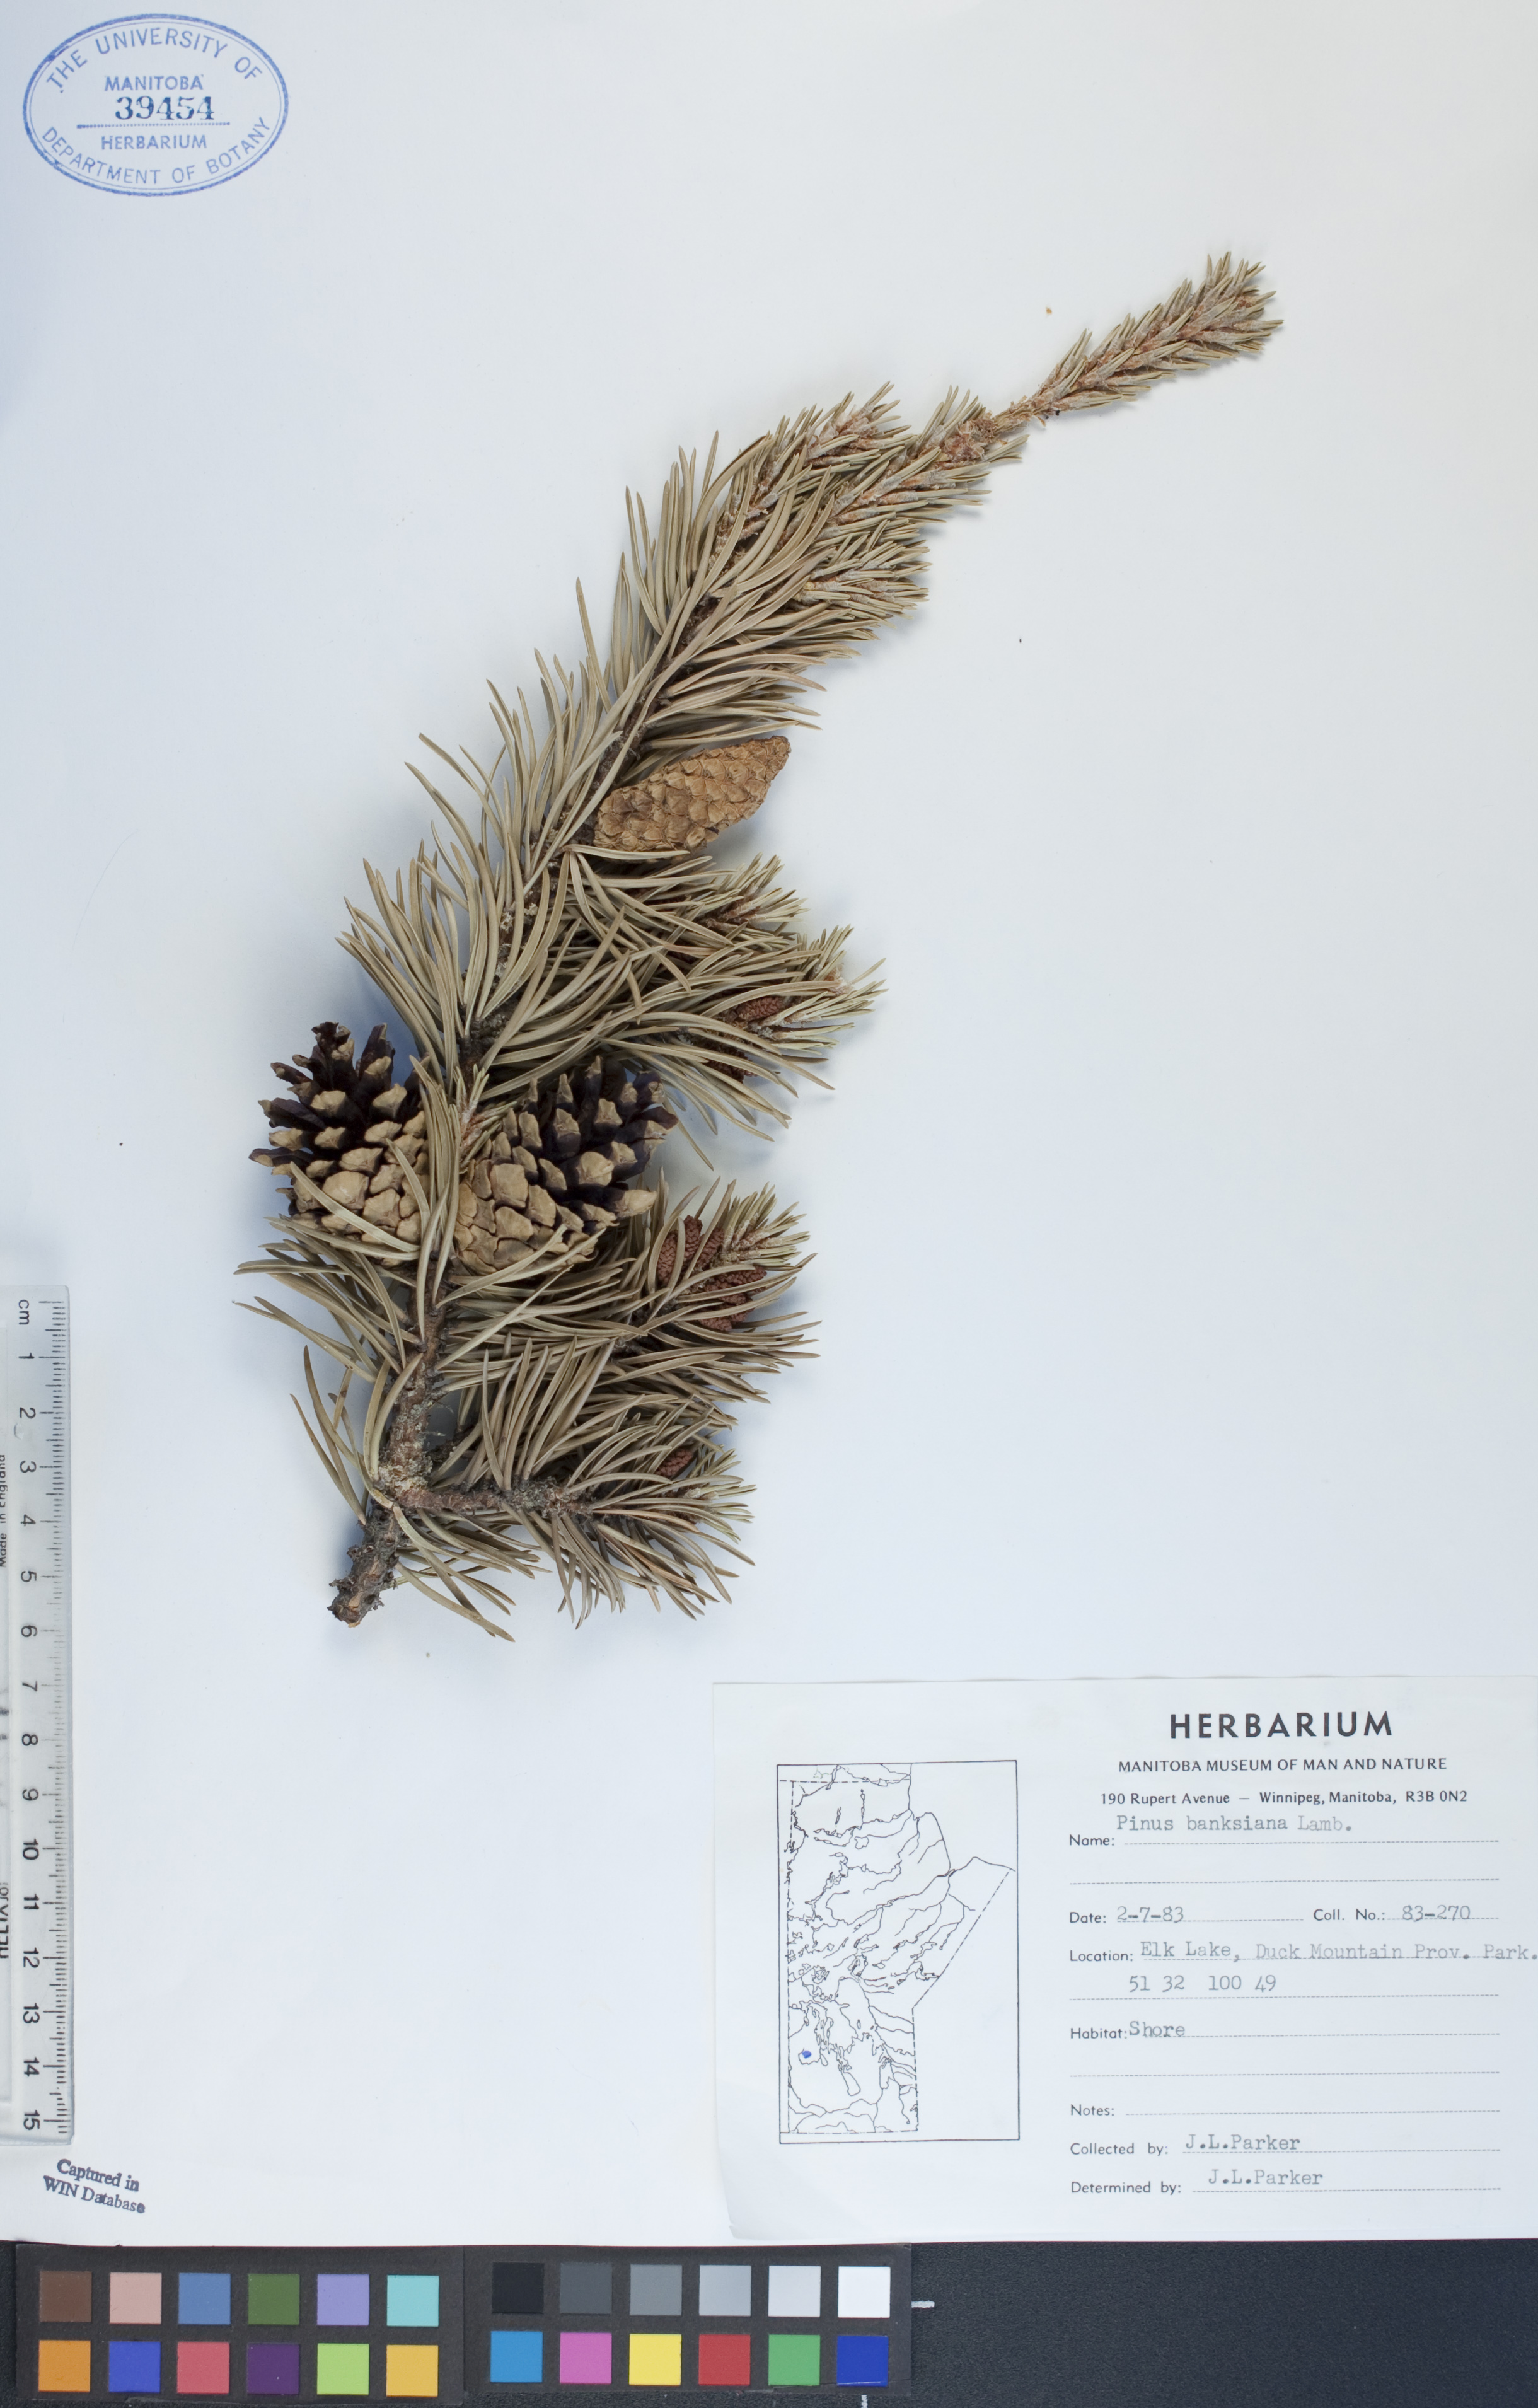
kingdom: Plantae
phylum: Tracheophyta
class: Pinopsida
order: Pinales
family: Pinaceae
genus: Pinus
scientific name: Pinus banksiana
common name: Jack pine
